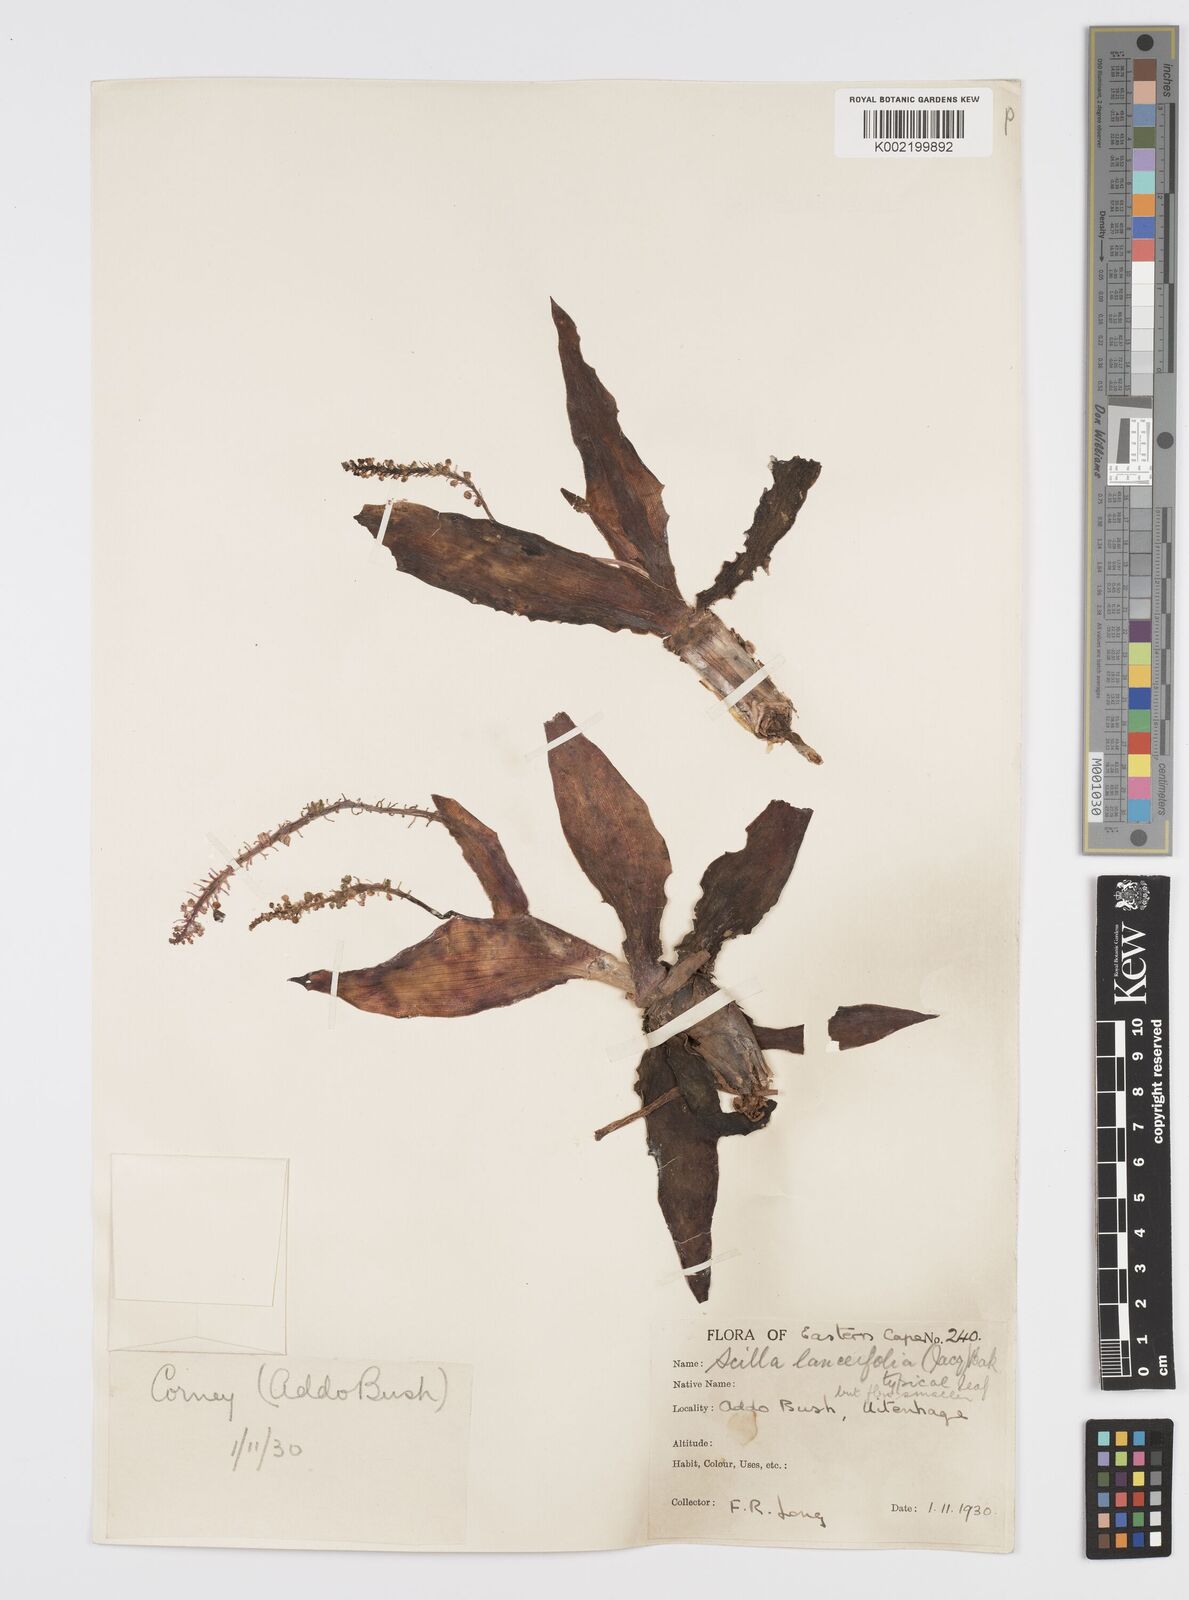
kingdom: Plantae
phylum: Tracheophyta
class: Liliopsida
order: Asparagales
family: Asparagaceae
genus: Ledebouria
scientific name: Ledebouria revoluta
